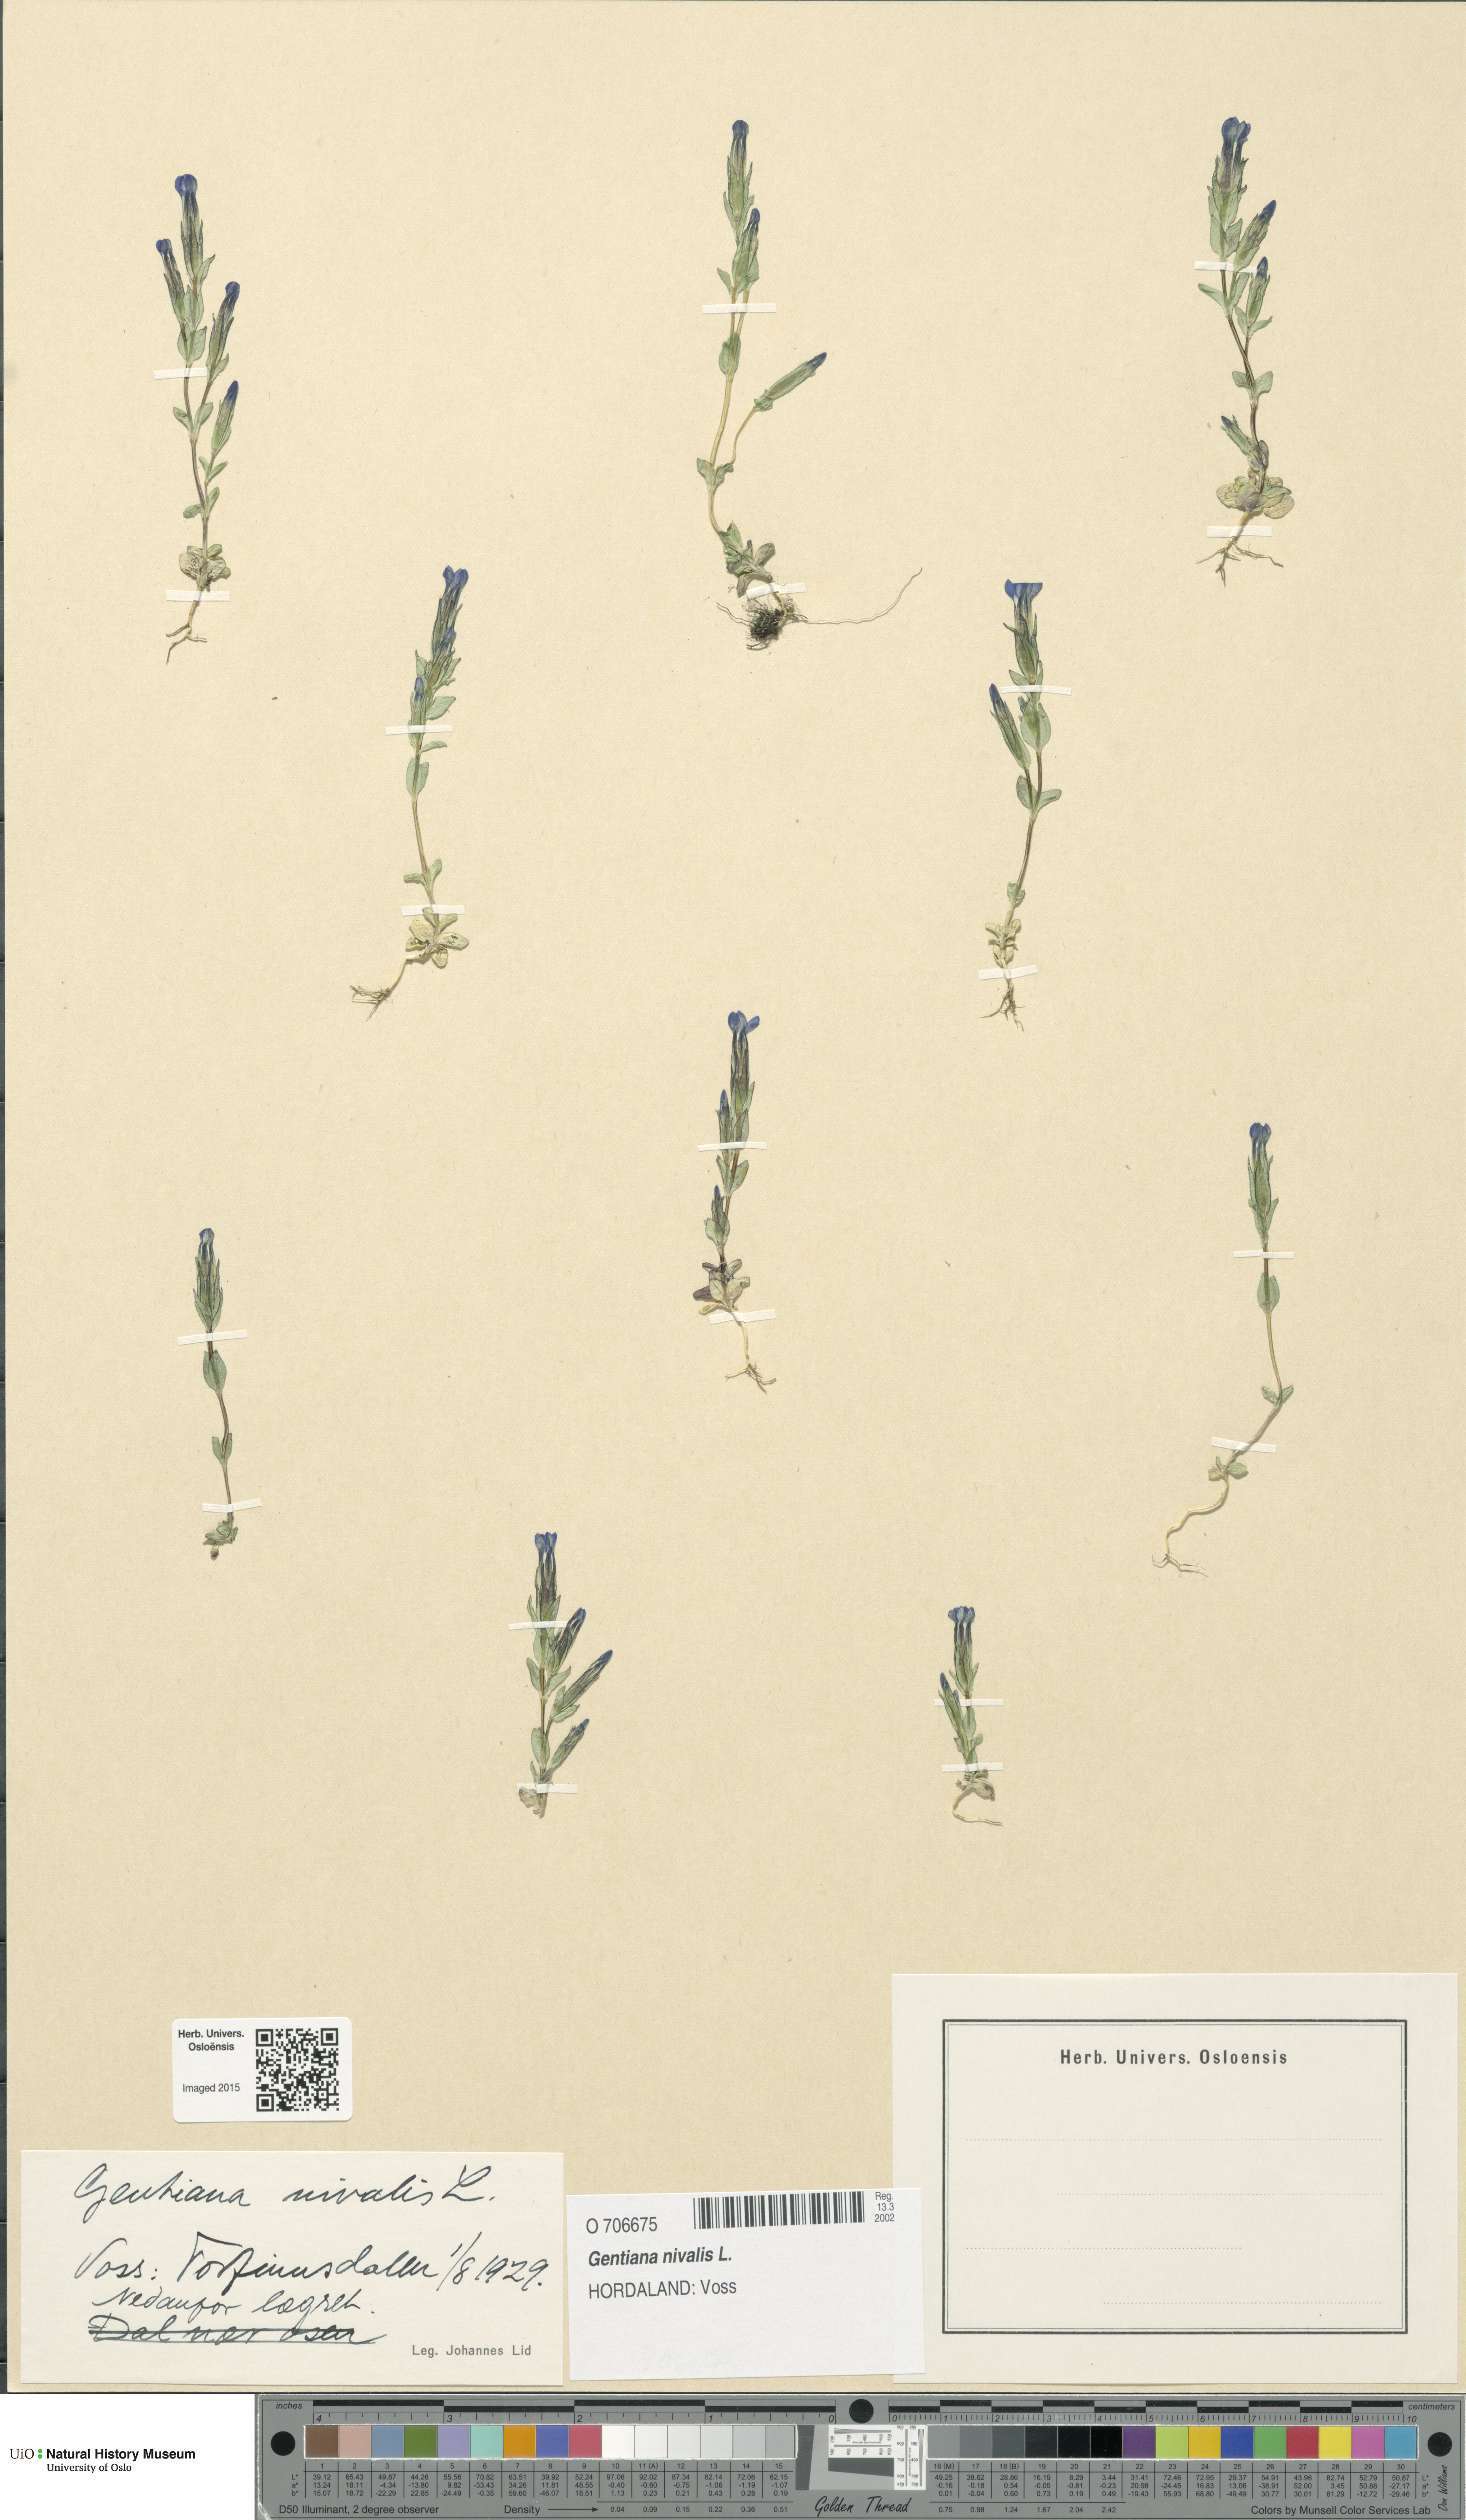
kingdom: Plantae
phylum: Tracheophyta
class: Magnoliopsida
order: Gentianales
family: Gentianaceae
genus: Gentiana
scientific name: Gentiana nivalis
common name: Alpine gentian
